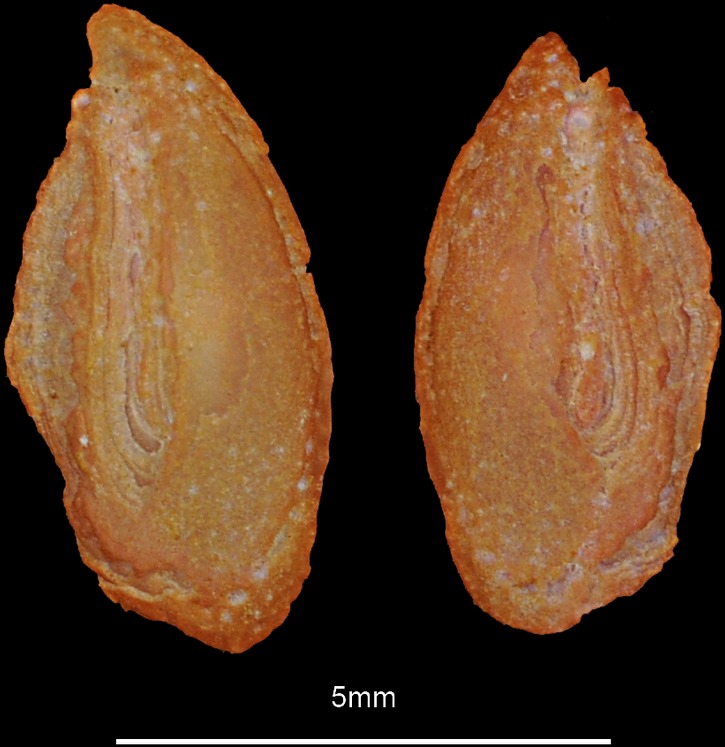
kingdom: Animalia
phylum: Chordata
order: Perciformes
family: Trachinidae
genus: Trachinus
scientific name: Trachinus draco
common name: Greater weever
